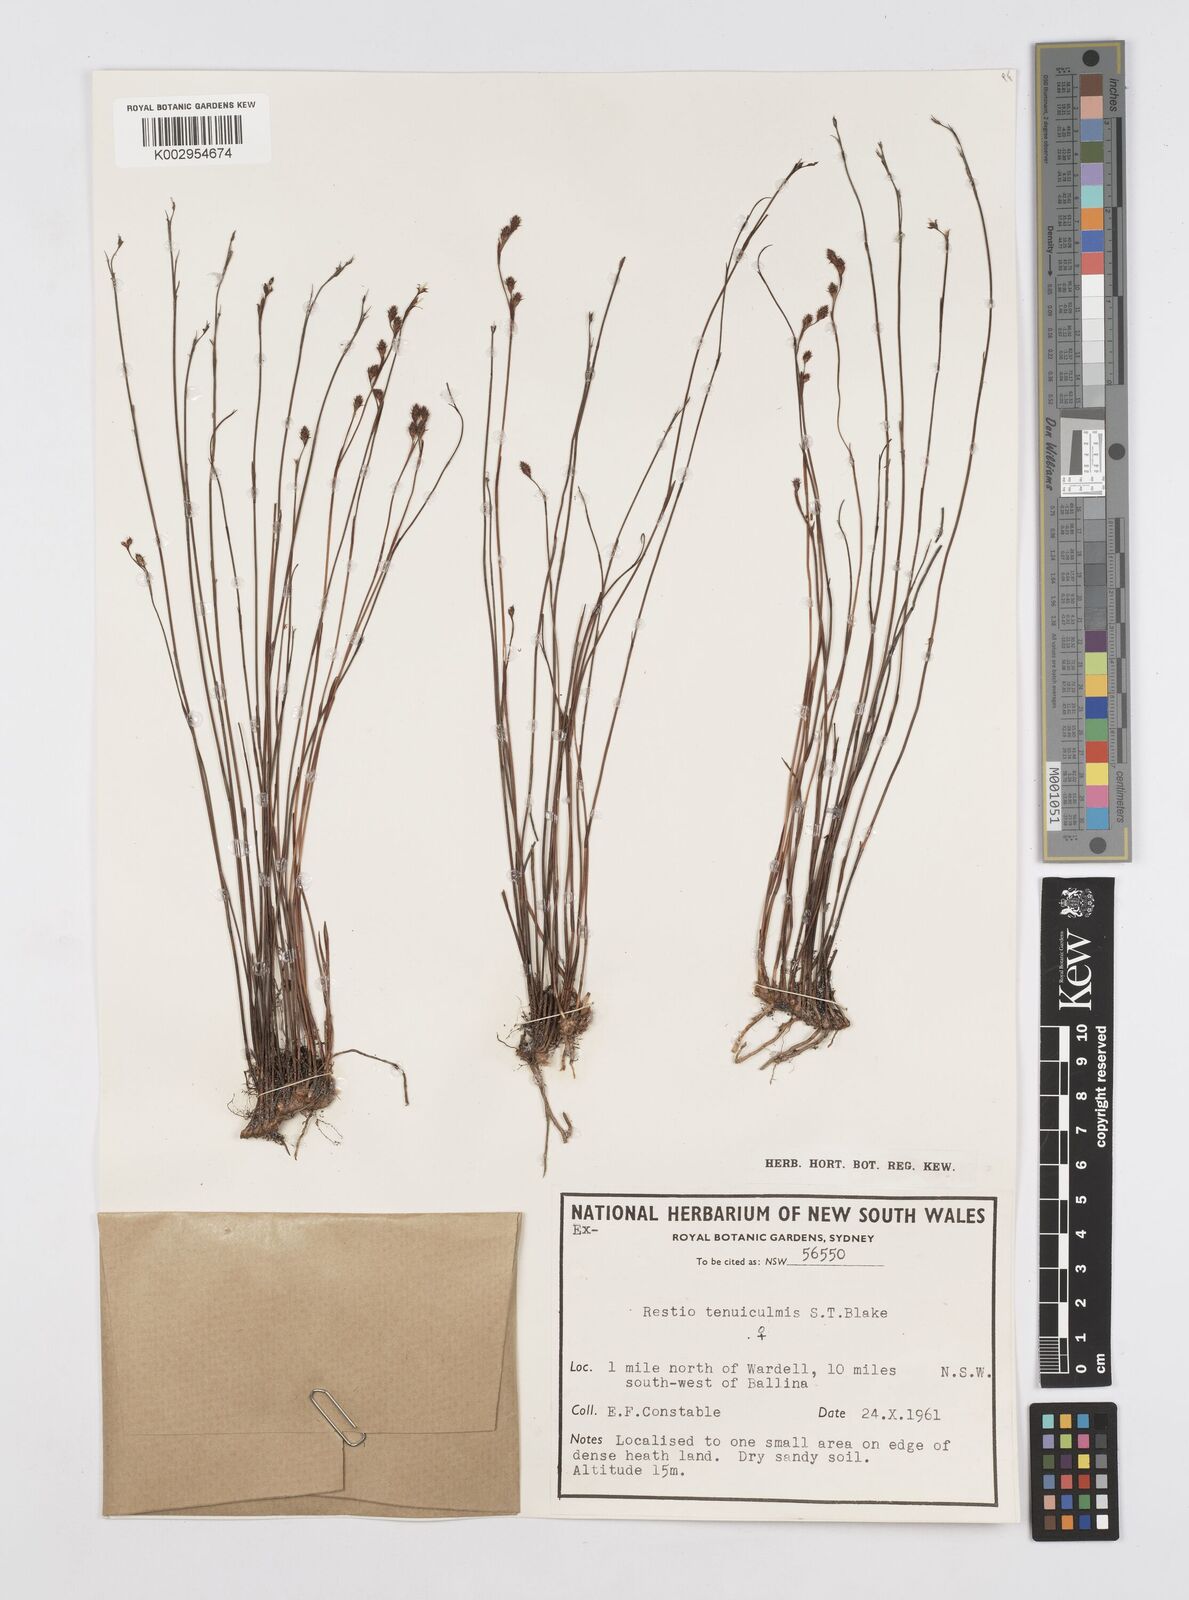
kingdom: Plantae
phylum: Tracheophyta
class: Liliopsida
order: Poales
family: Restionaceae
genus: Baloskion
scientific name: Baloskion tenuiculme
